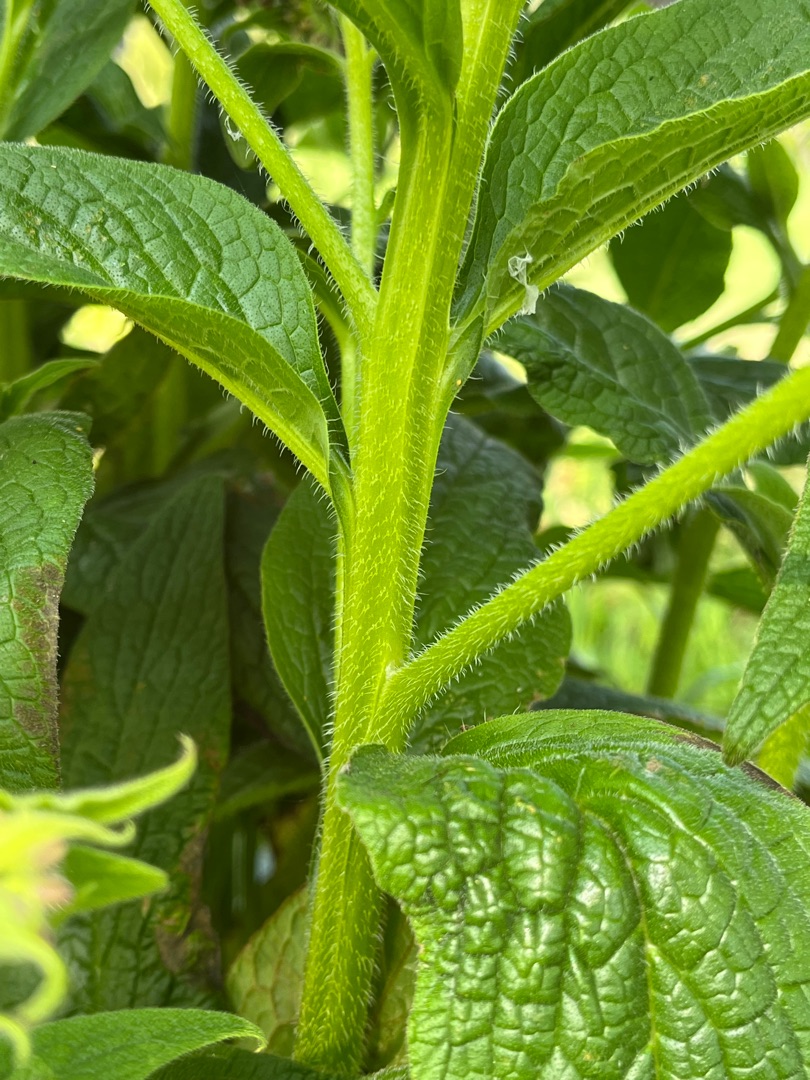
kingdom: Plantae
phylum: Tracheophyta
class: Magnoliopsida
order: Boraginales
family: Boraginaceae
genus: Symphytum
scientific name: Symphytum uplandicum
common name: Foder-kulsukker
